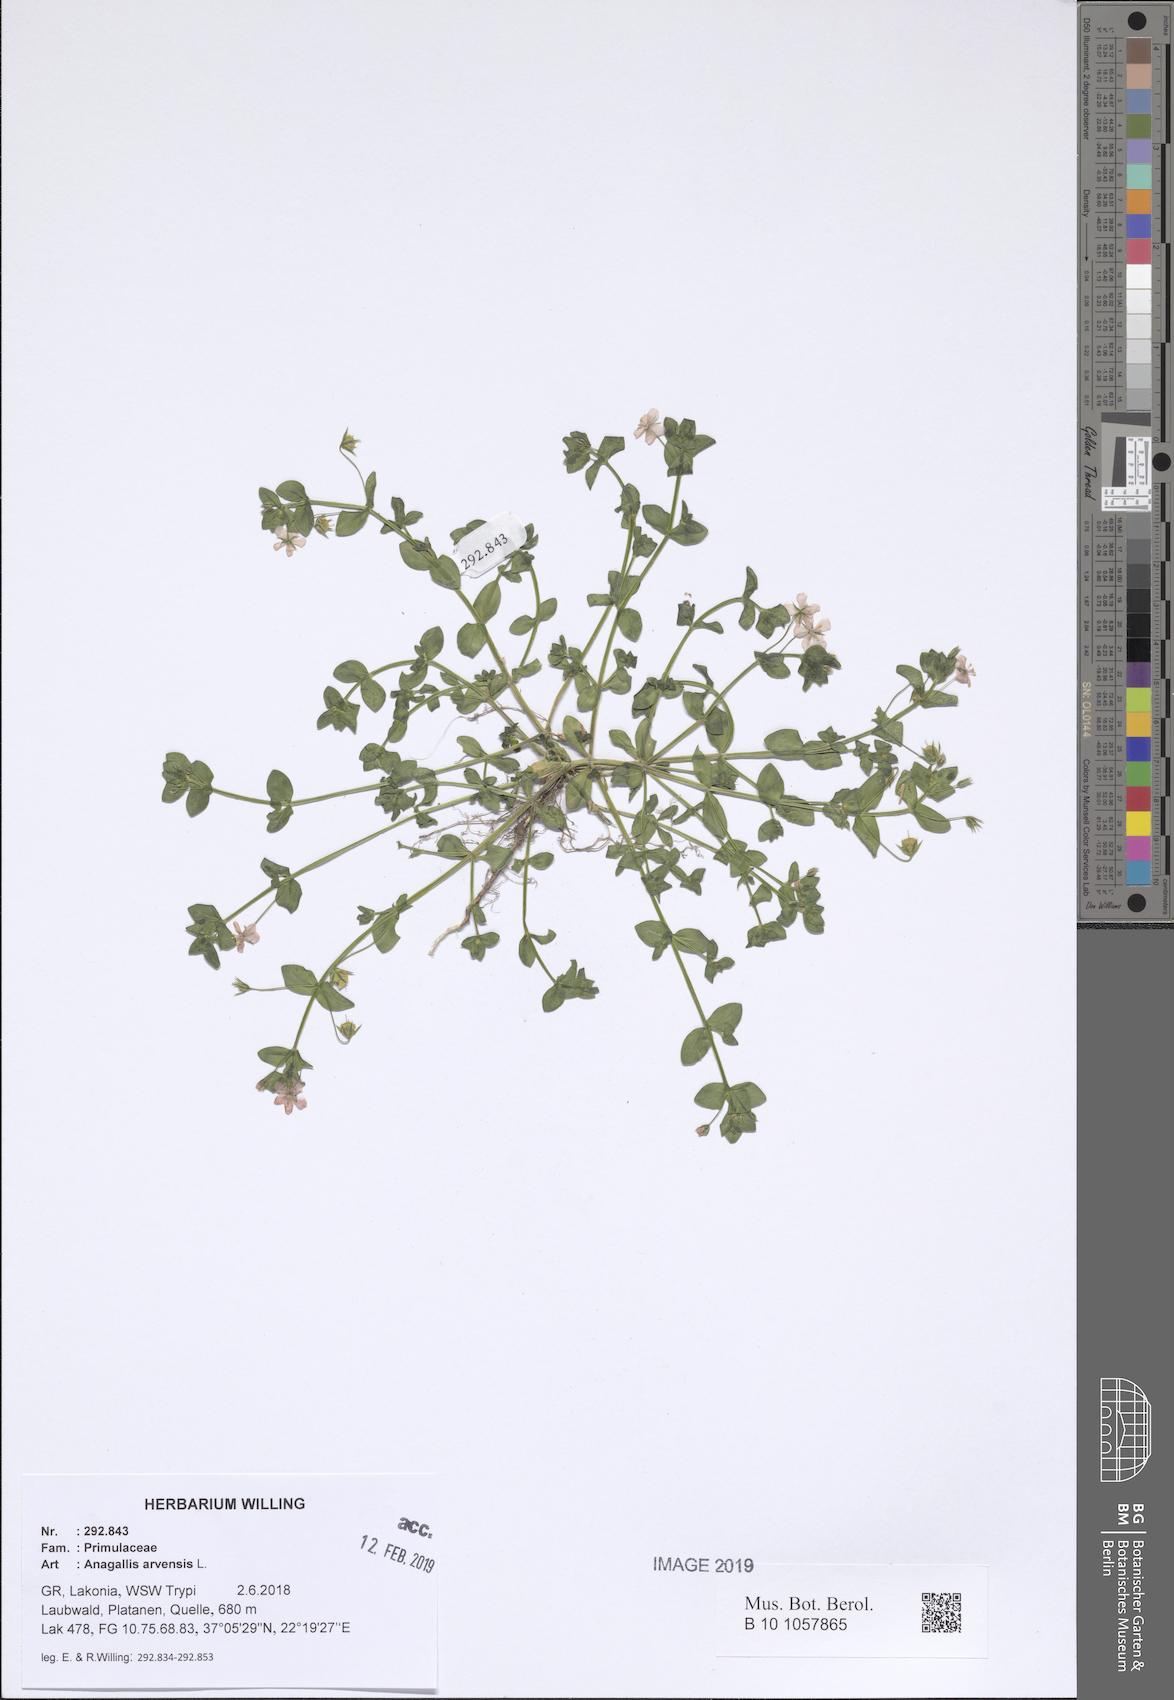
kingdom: Plantae
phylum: Tracheophyta
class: Magnoliopsida
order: Ericales
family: Primulaceae
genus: Lysimachia
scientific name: Lysimachia arvensis
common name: Scarlet pimpernel
